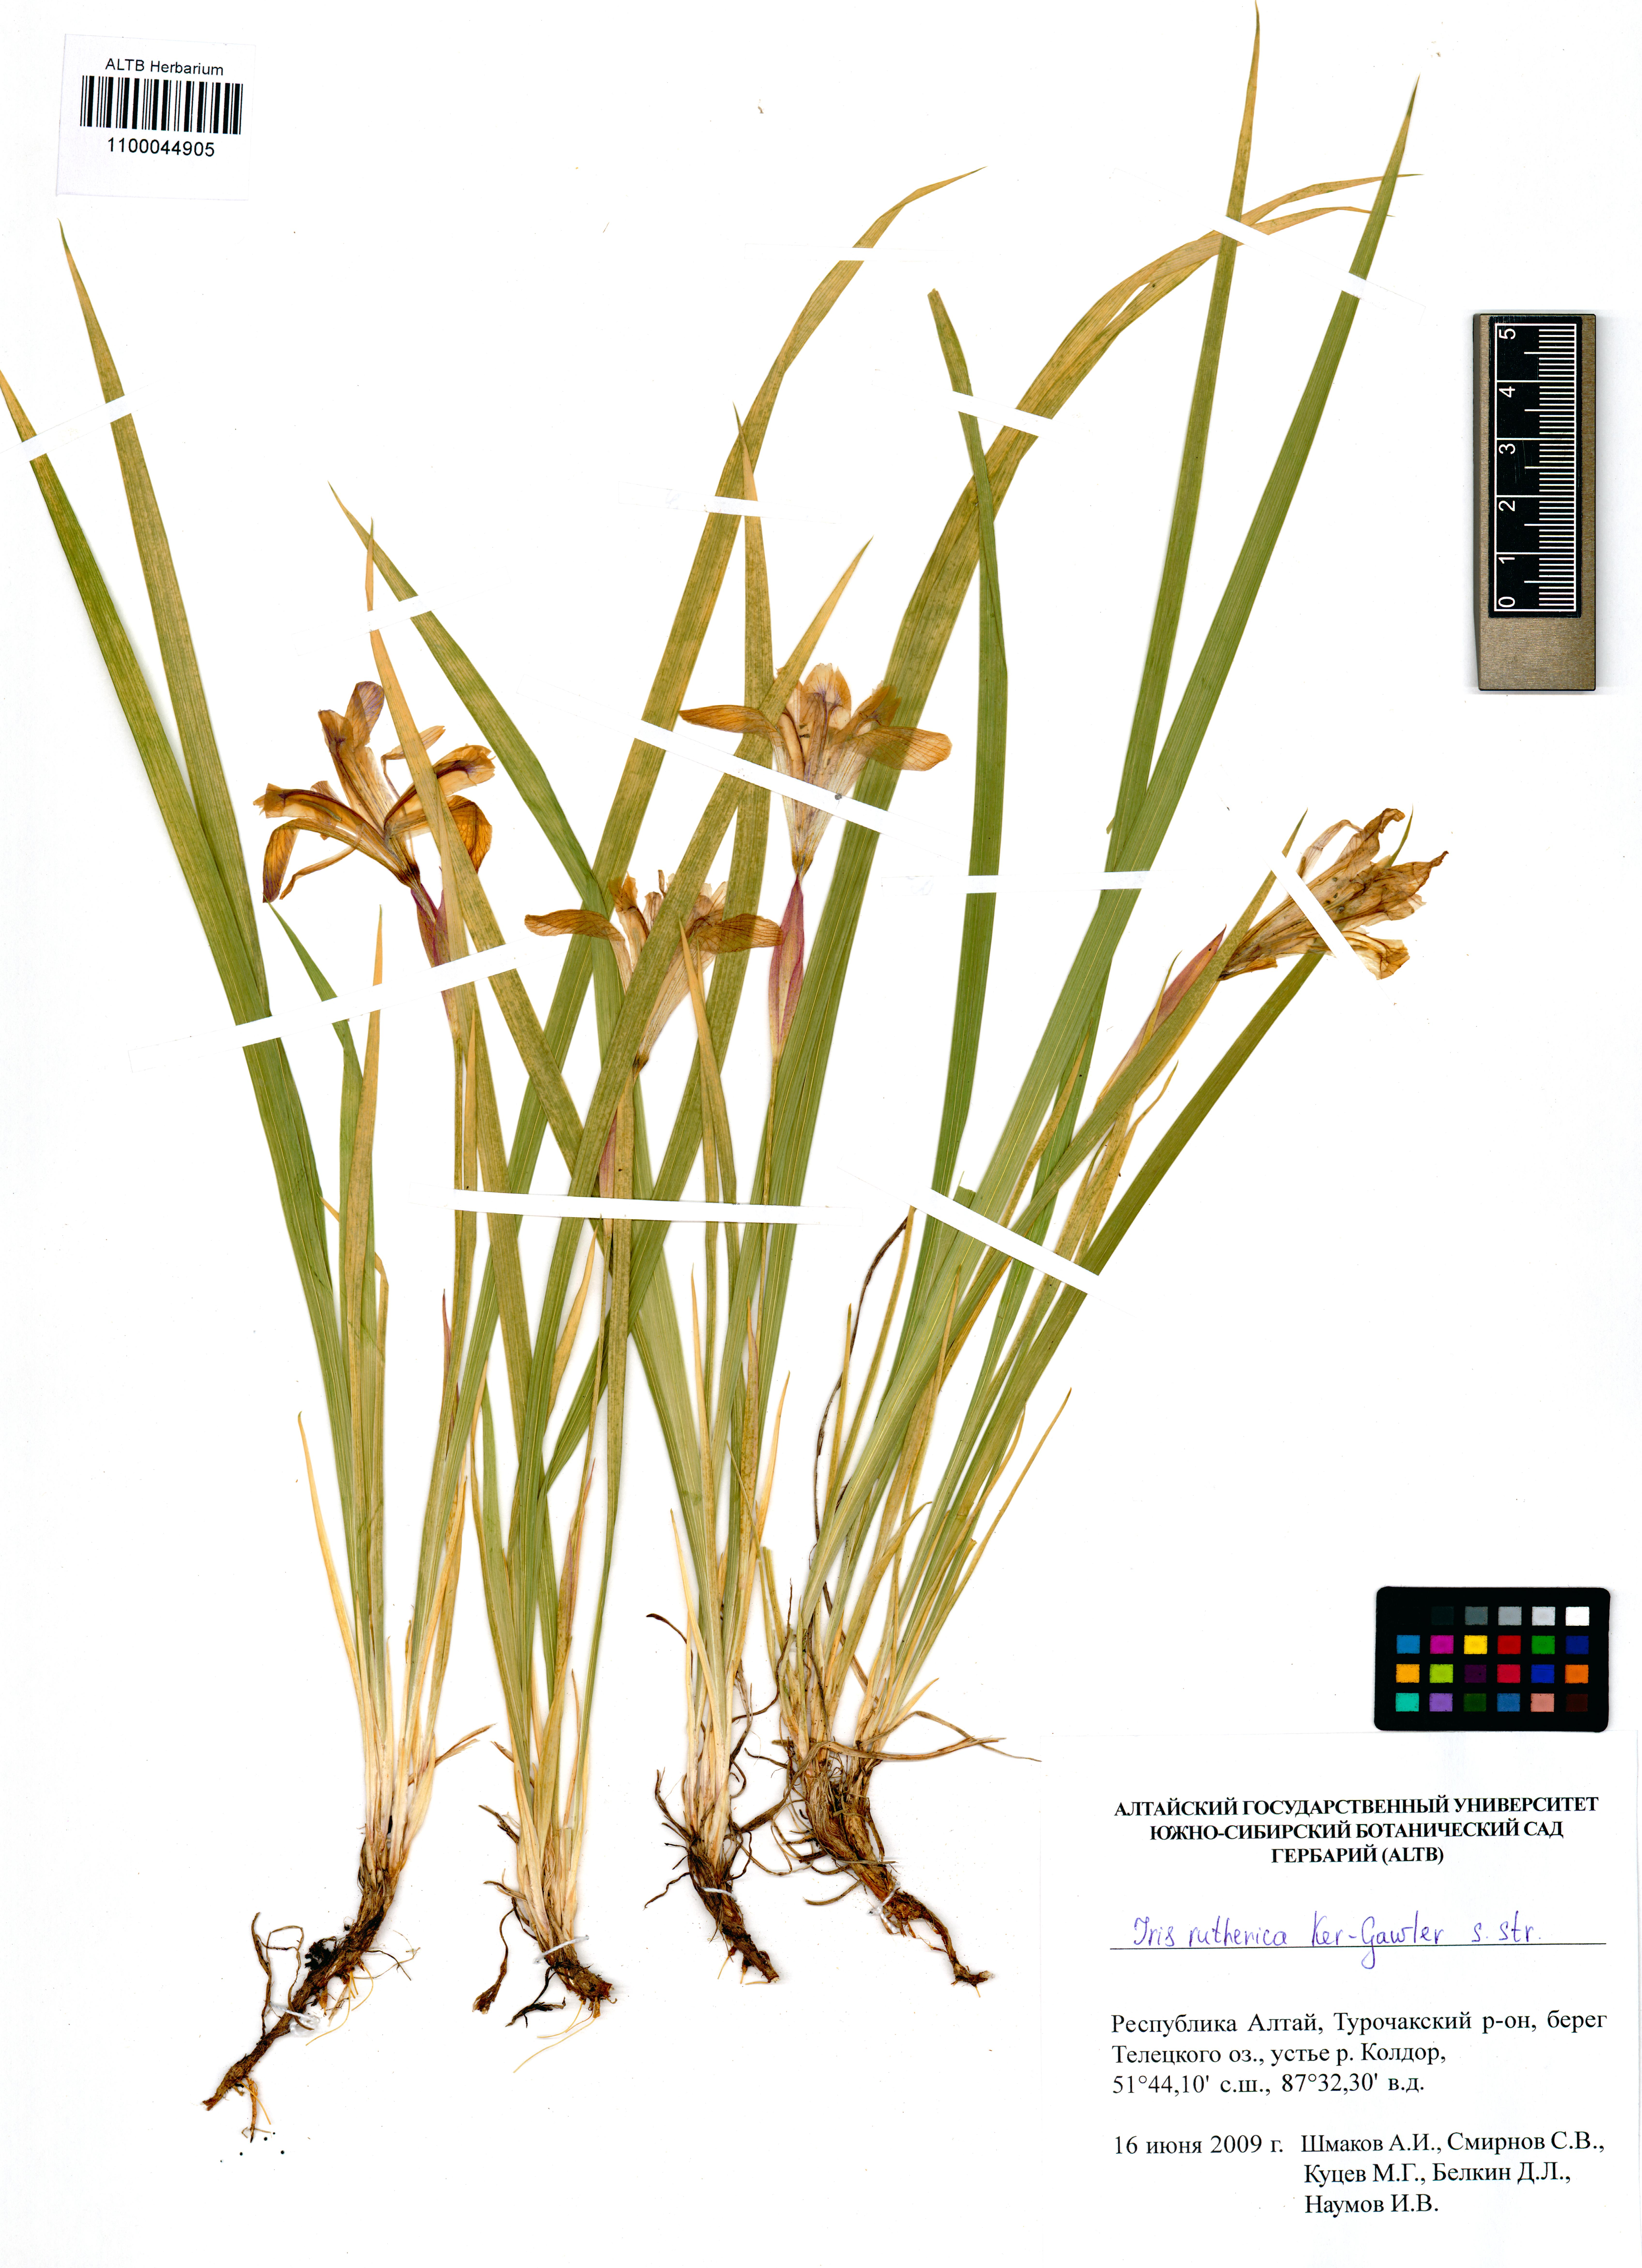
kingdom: Plantae
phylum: Tracheophyta
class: Liliopsida
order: Asparagales
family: Iridaceae
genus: Iris
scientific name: Iris ruthenica
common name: Purple-bract iris
